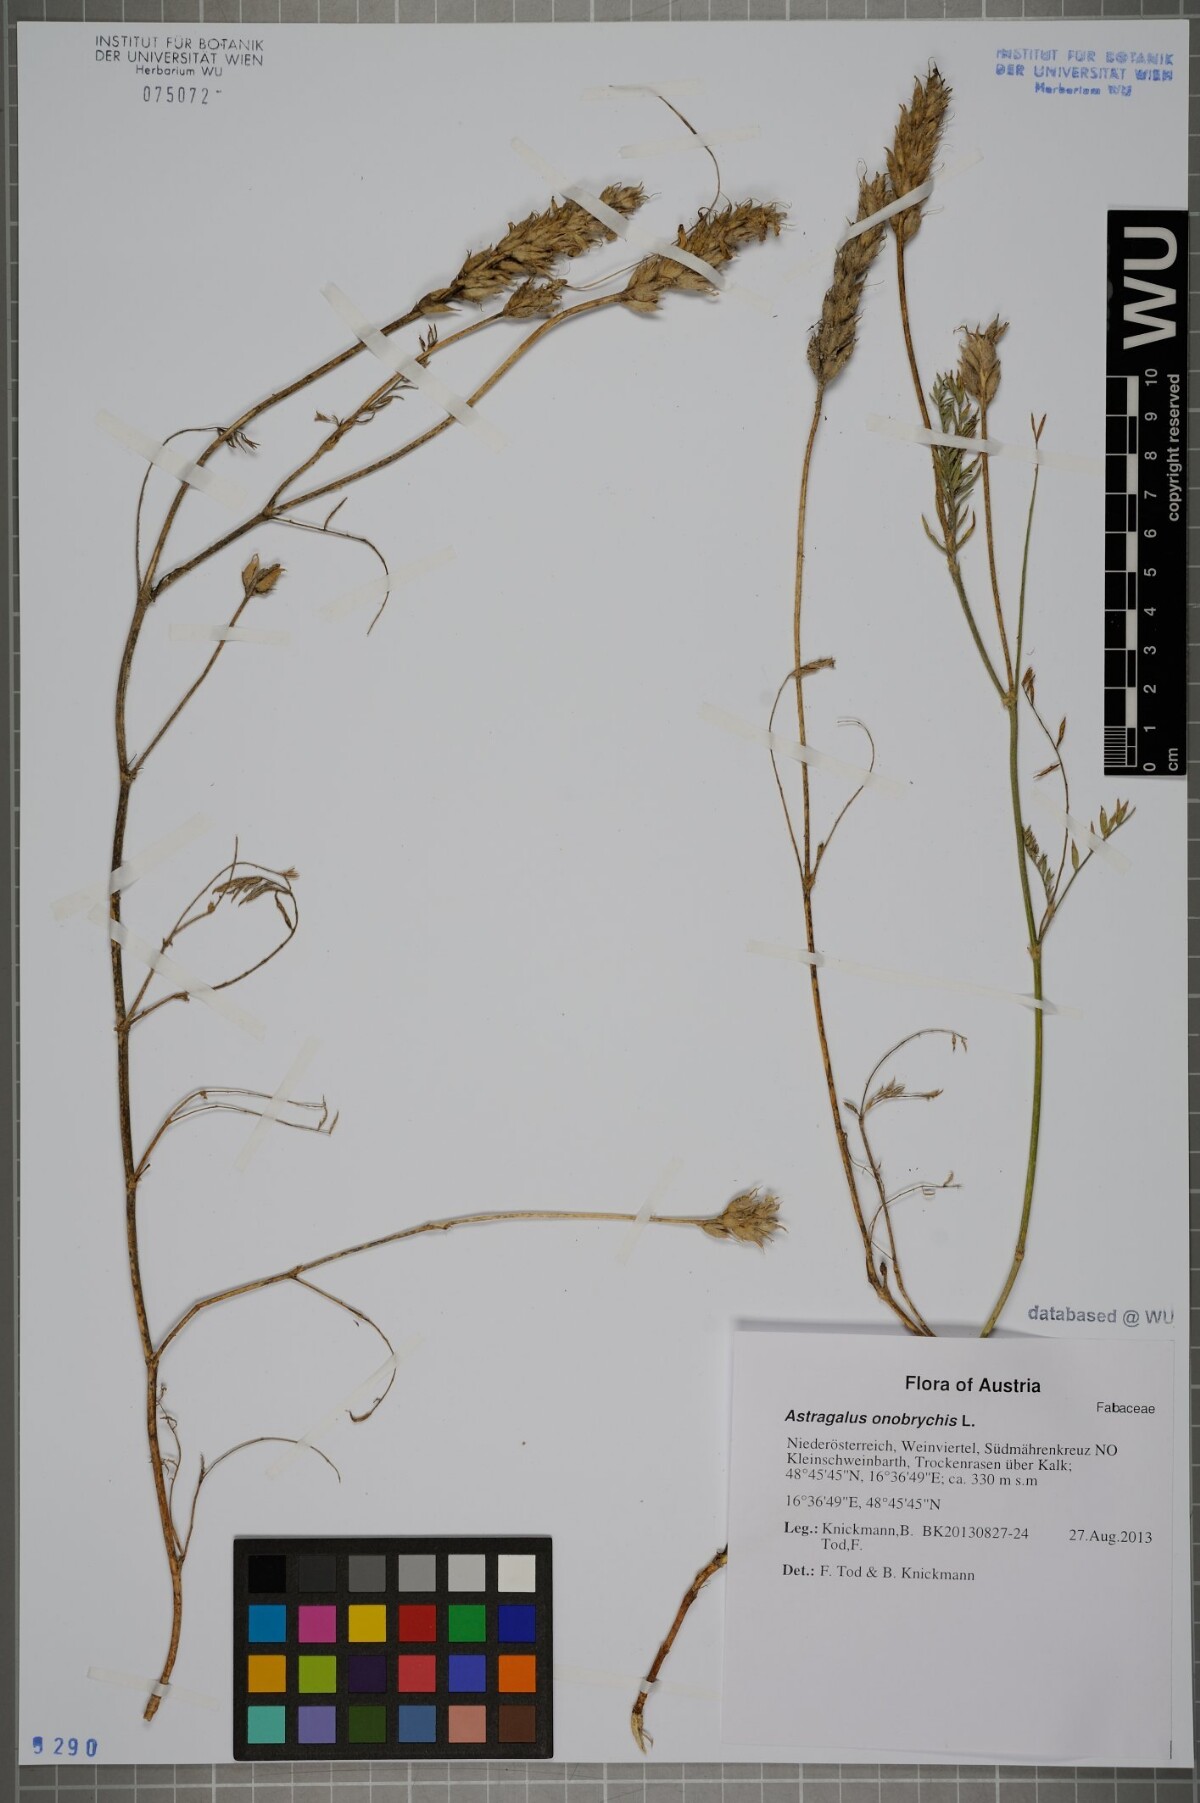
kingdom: Plantae
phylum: Tracheophyta
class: Magnoliopsida
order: Fabales
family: Fabaceae
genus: Astragalus
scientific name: Astragalus onobrychis
